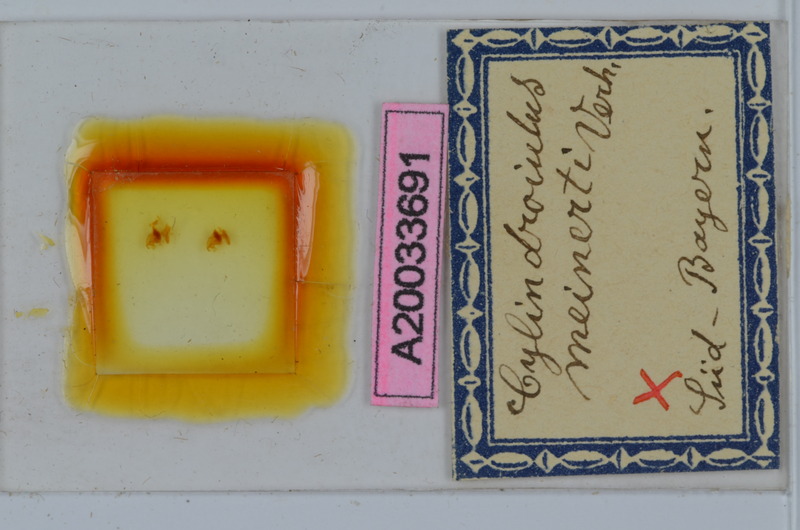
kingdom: Animalia
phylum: Arthropoda
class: Diplopoda
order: Julida
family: Julidae
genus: Cylindroiulus
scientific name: Cylindroiulus meinerti
